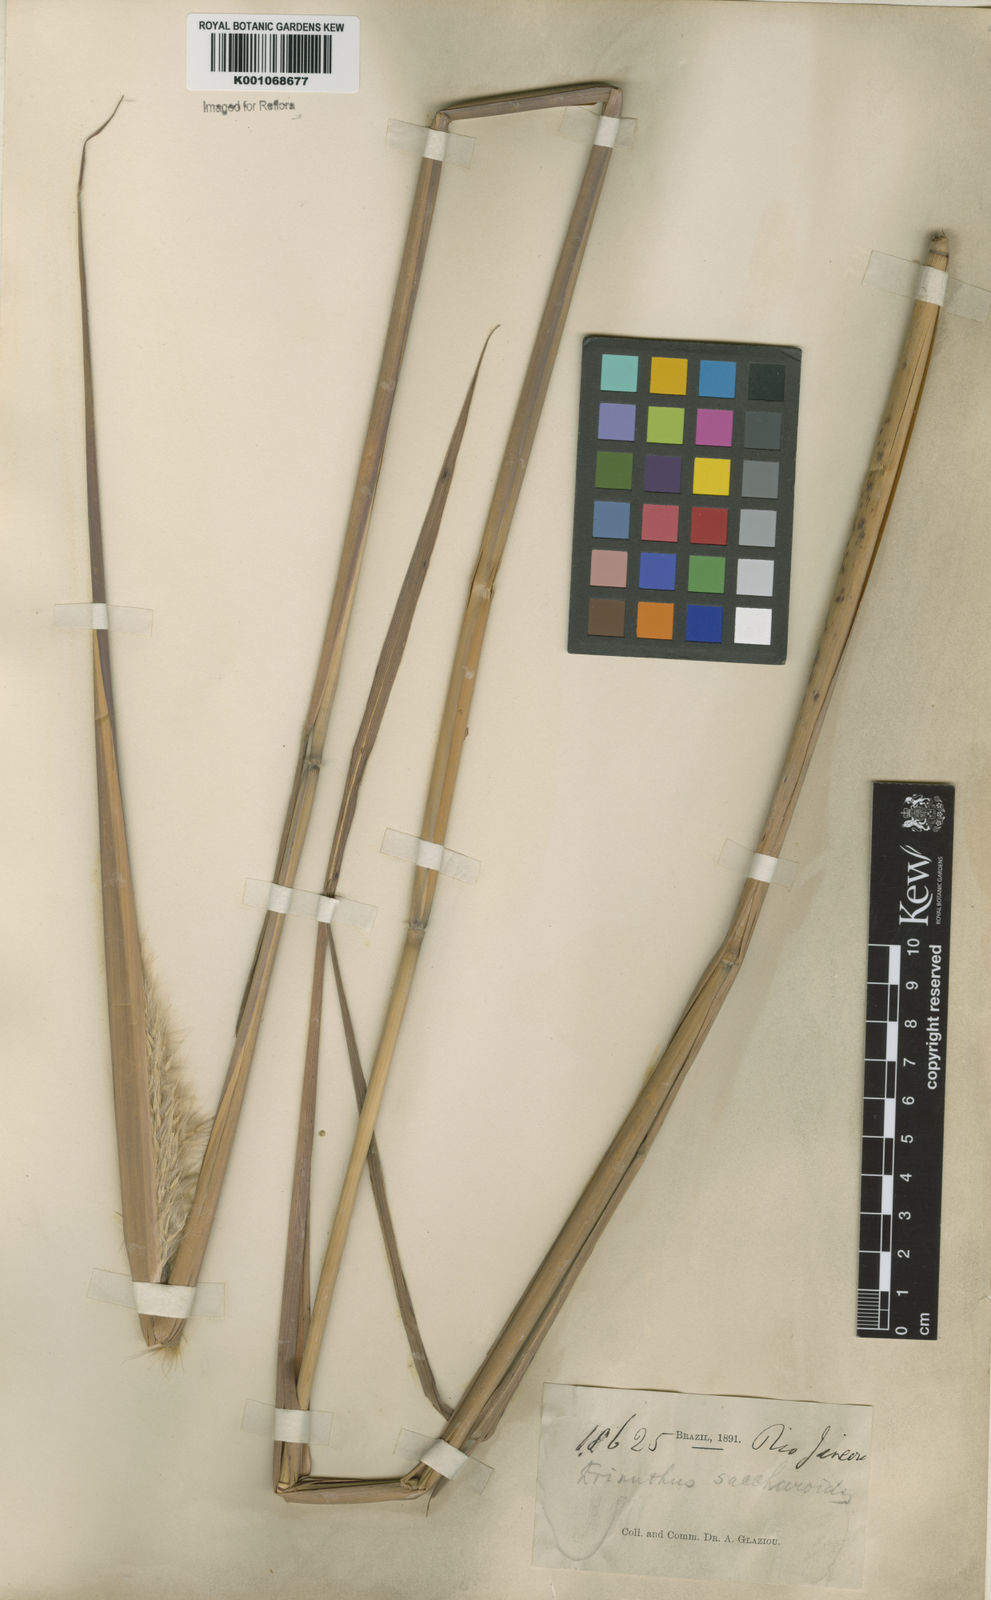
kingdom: Plantae
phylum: Tracheophyta
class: Liliopsida
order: Poales
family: Poaceae
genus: Erianthus
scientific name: Erianthus trinii
